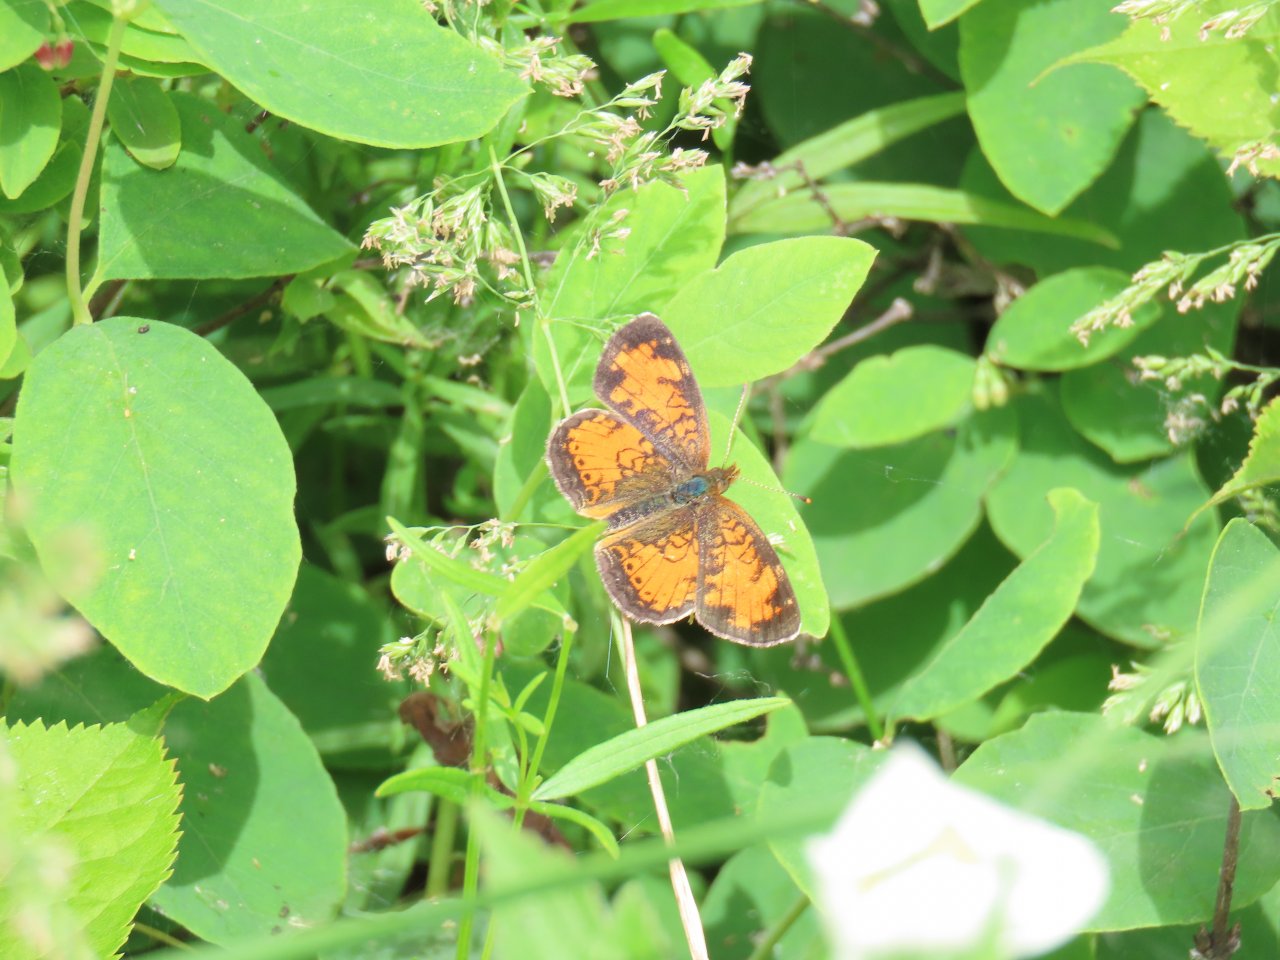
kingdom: Animalia
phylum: Arthropoda
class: Insecta
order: Lepidoptera
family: Nymphalidae
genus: Phyciodes
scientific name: Phyciodes tharos
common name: Northern Crescent
